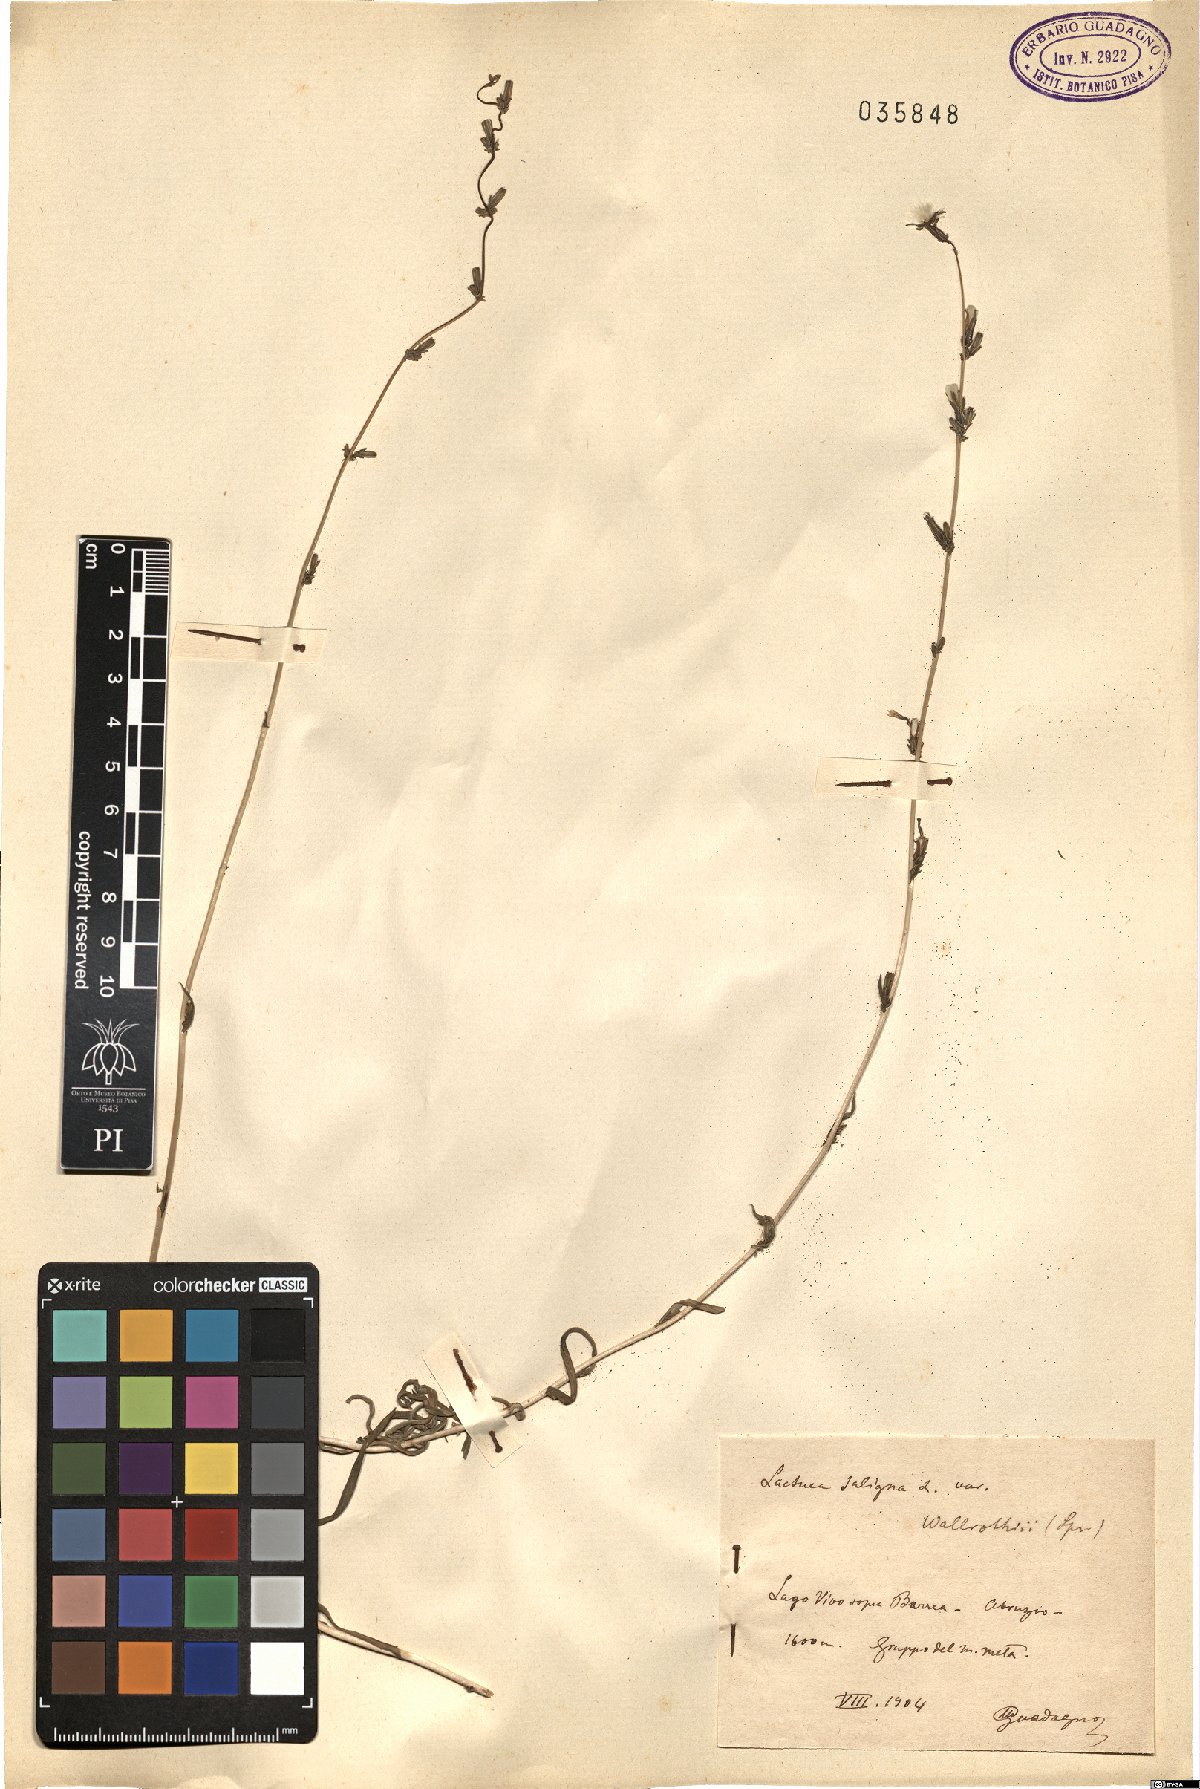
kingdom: Plantae
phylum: Tracheophyta
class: Magnoliopsida
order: Asterales
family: Asteraceae
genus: Lactuca
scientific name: Lactuca saligna
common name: Wild lettuce
